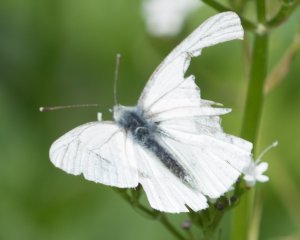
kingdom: Animalia
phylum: Arthropoda
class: Insecta
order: Lepidoptera
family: Pieridae
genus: Pieris
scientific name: Pieris marginalis
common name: Margined White
